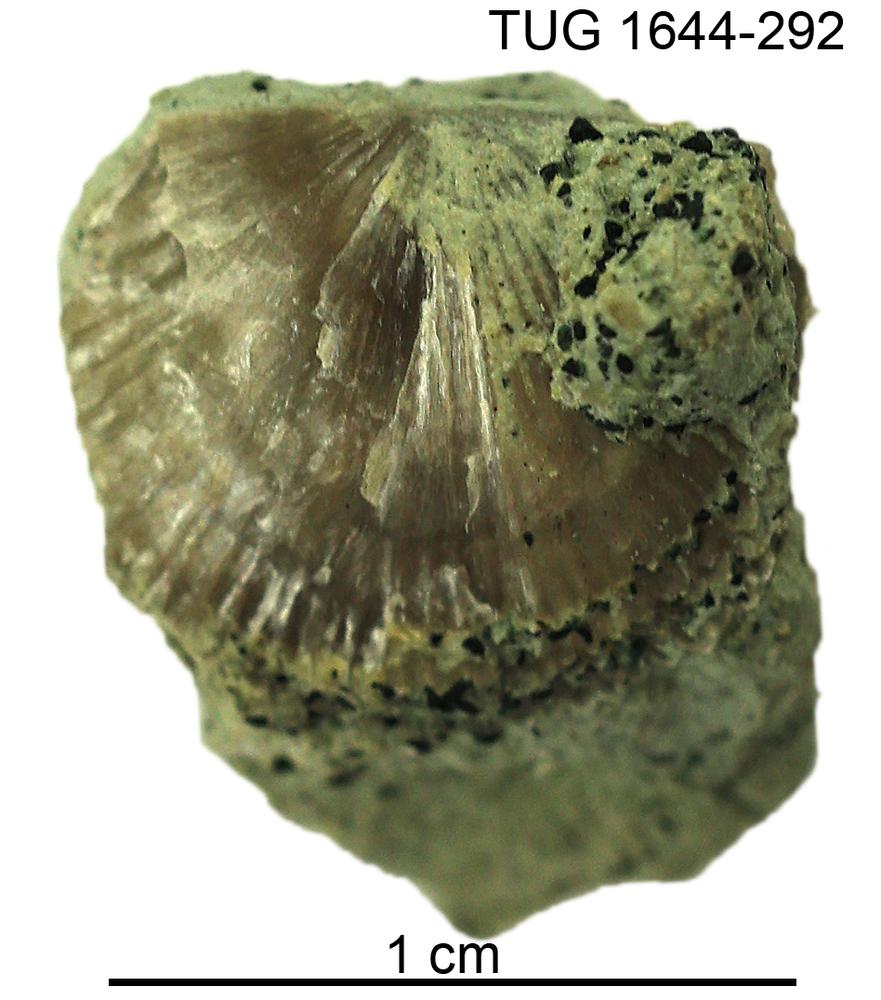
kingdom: Animalia
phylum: Brachiopoda
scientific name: Brachiopoda
